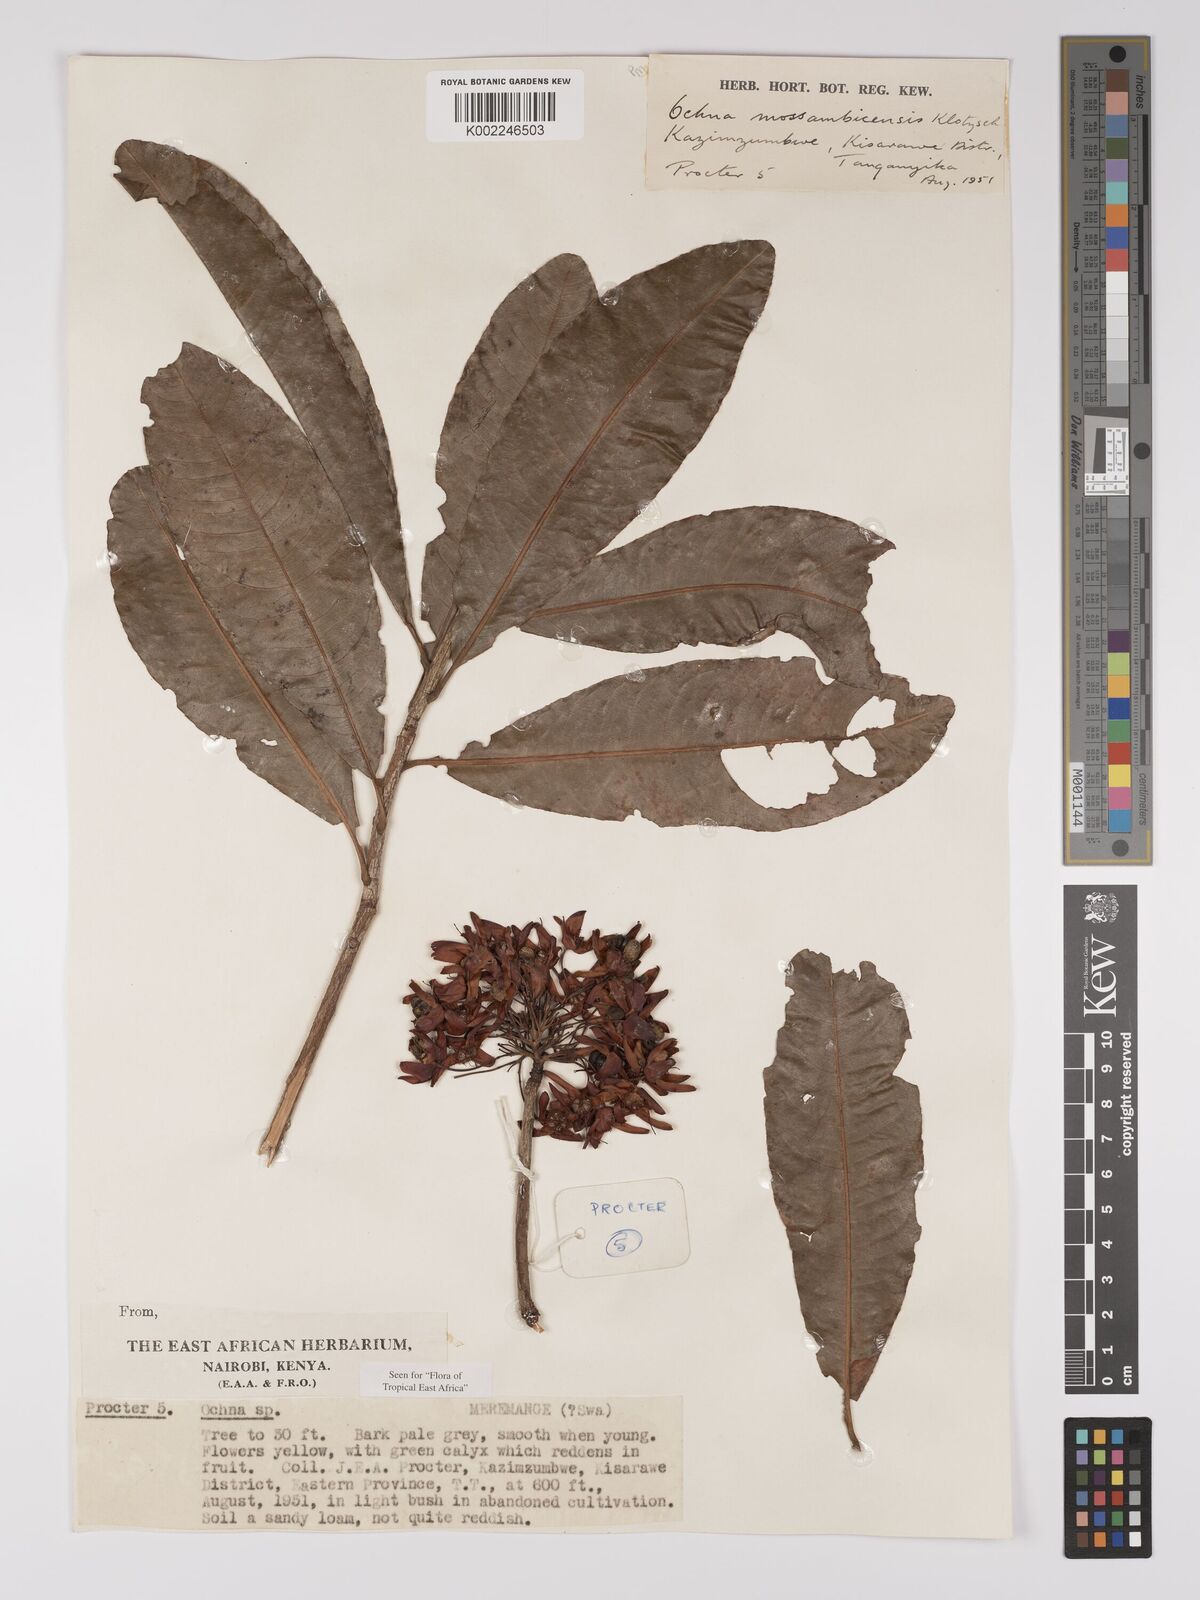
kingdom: Plantae
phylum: Tracheophyta
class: Magnoliopsida
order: Malpighiales
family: Ochnaceae
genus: Ochna
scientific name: Ochna atropurpurea
